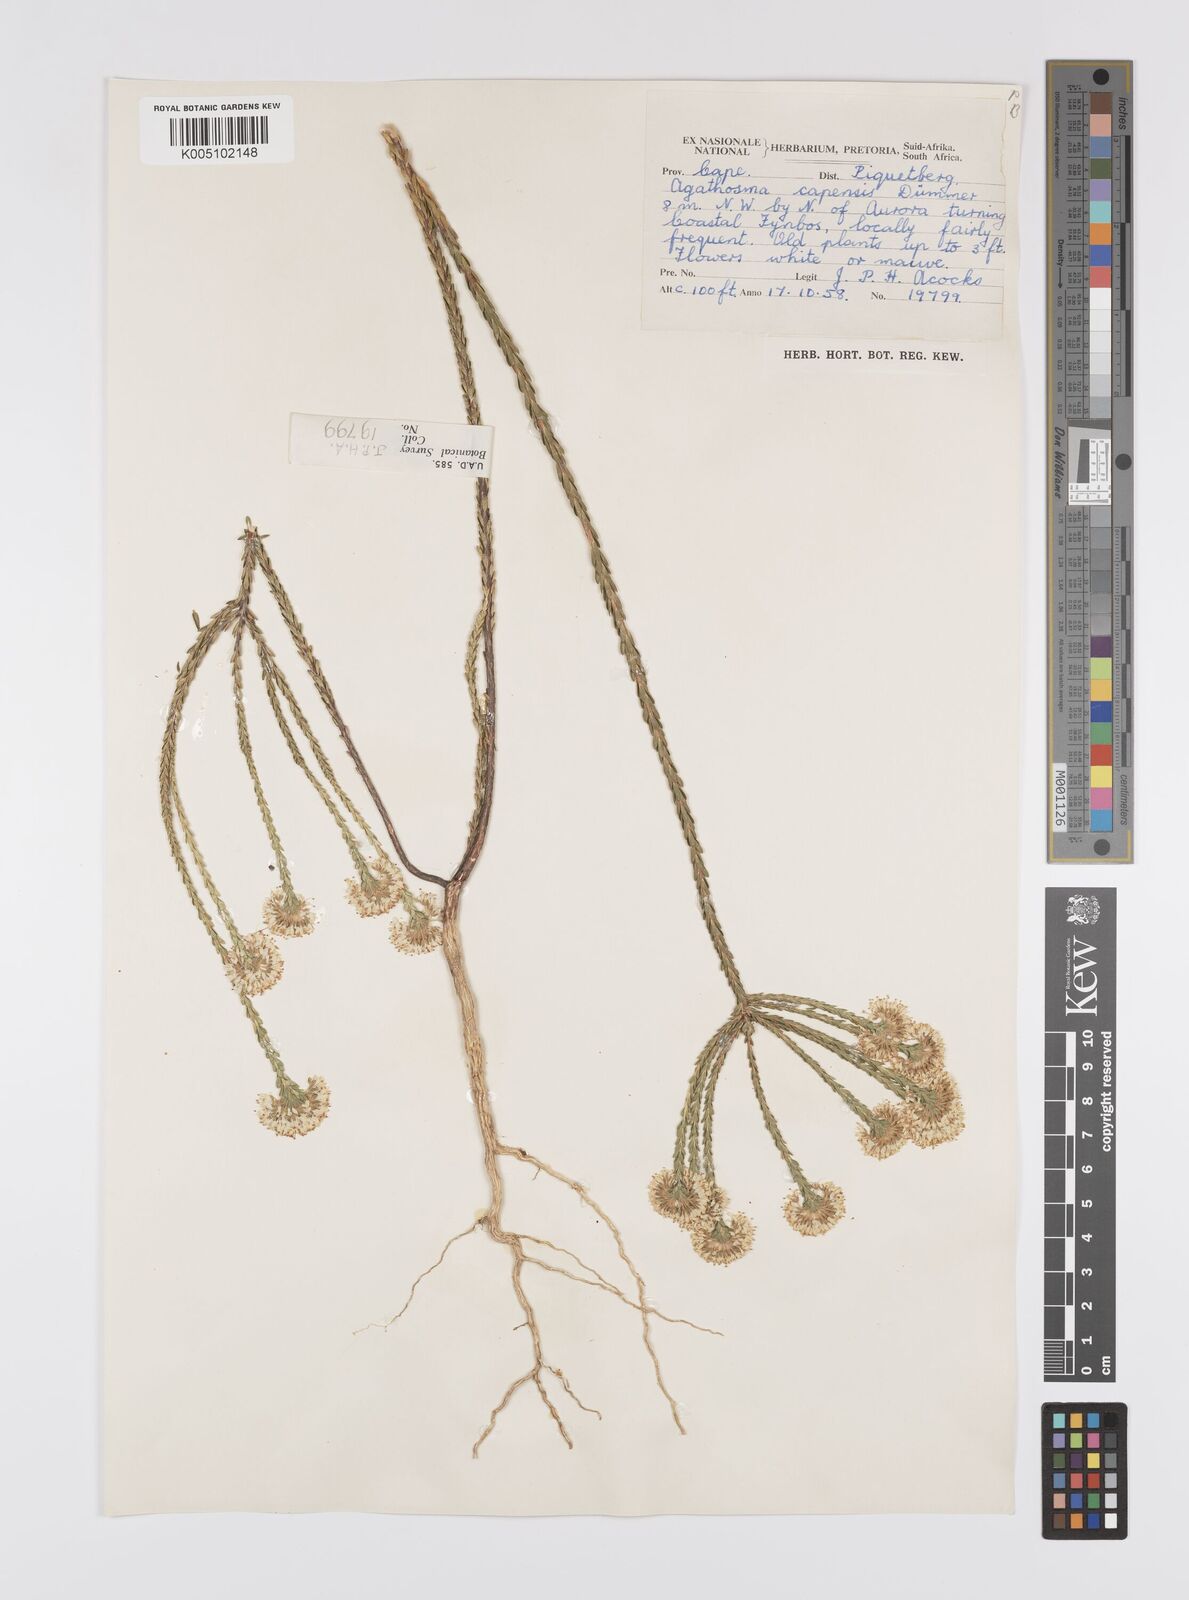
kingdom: Plantae
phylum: Tracheophyta
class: Magnoliopsida
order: Sapindales
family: Rutaceae
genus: Agathosma
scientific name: Agathosma capensis
